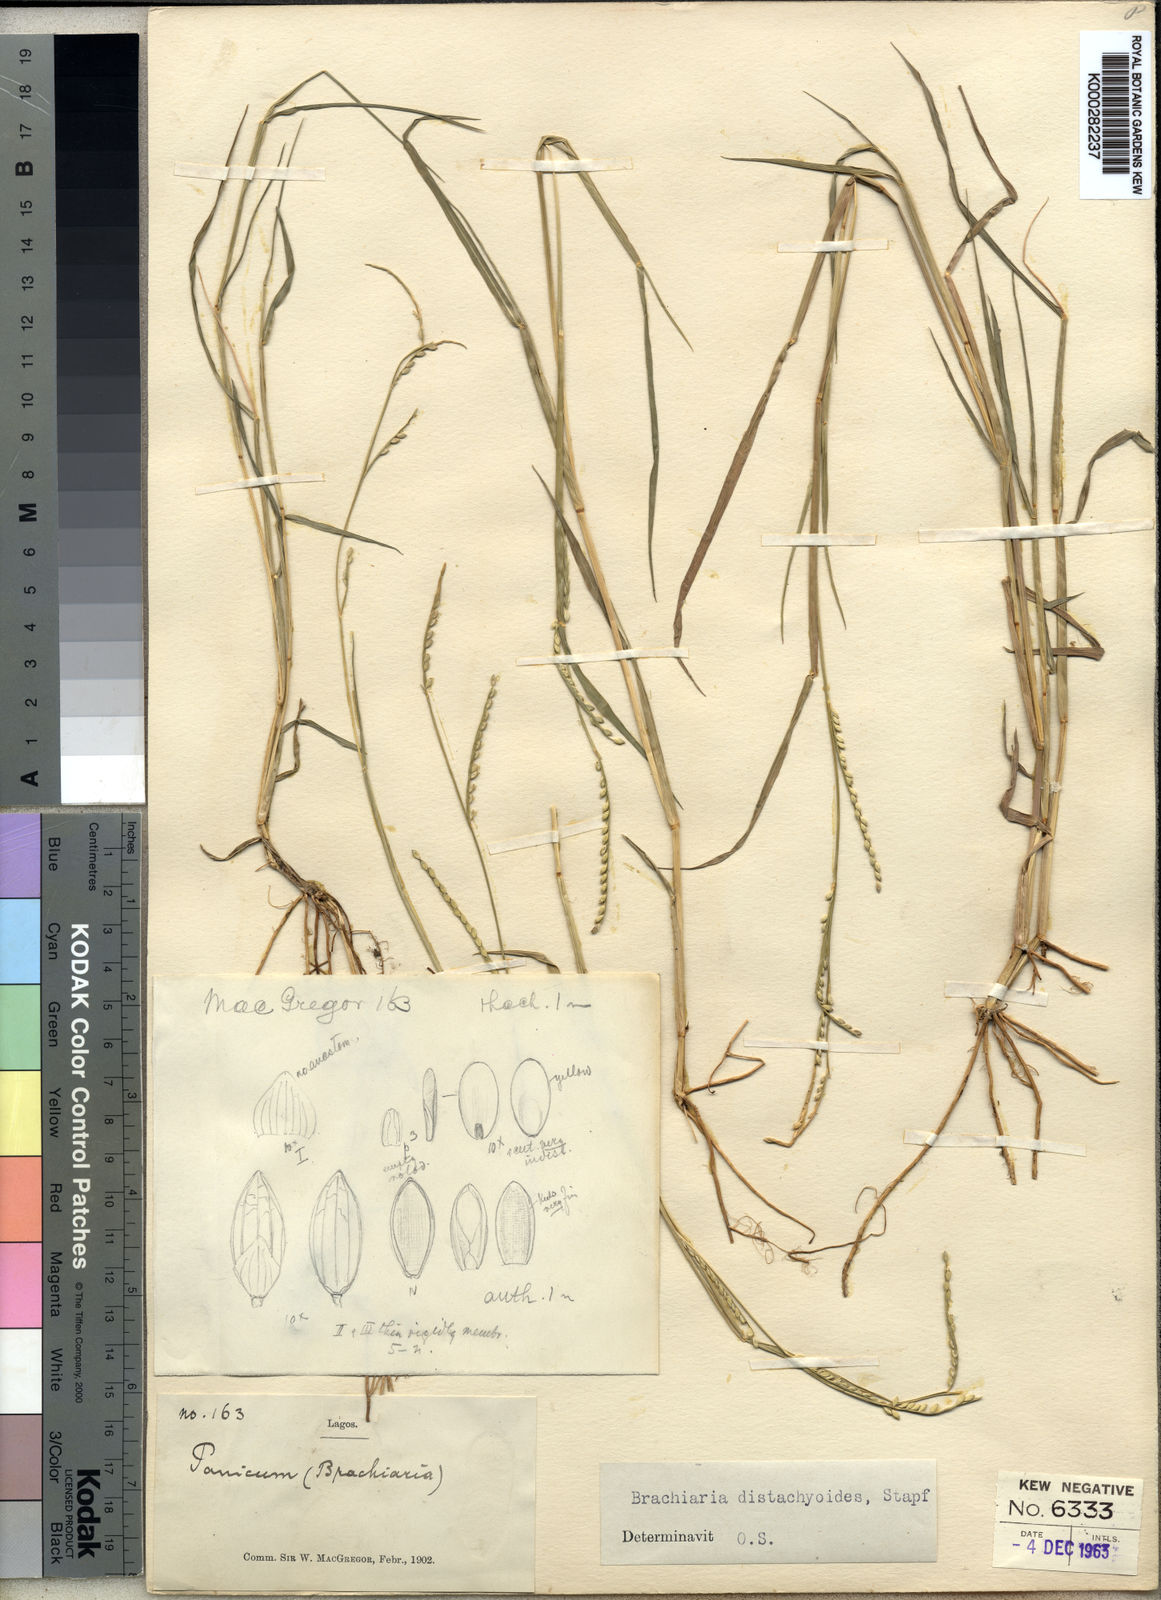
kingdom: Plantae
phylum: Tracheophyta
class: Liliopsida
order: Poales
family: Poaceae
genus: Urochloa
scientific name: Urochloa distachyoides
